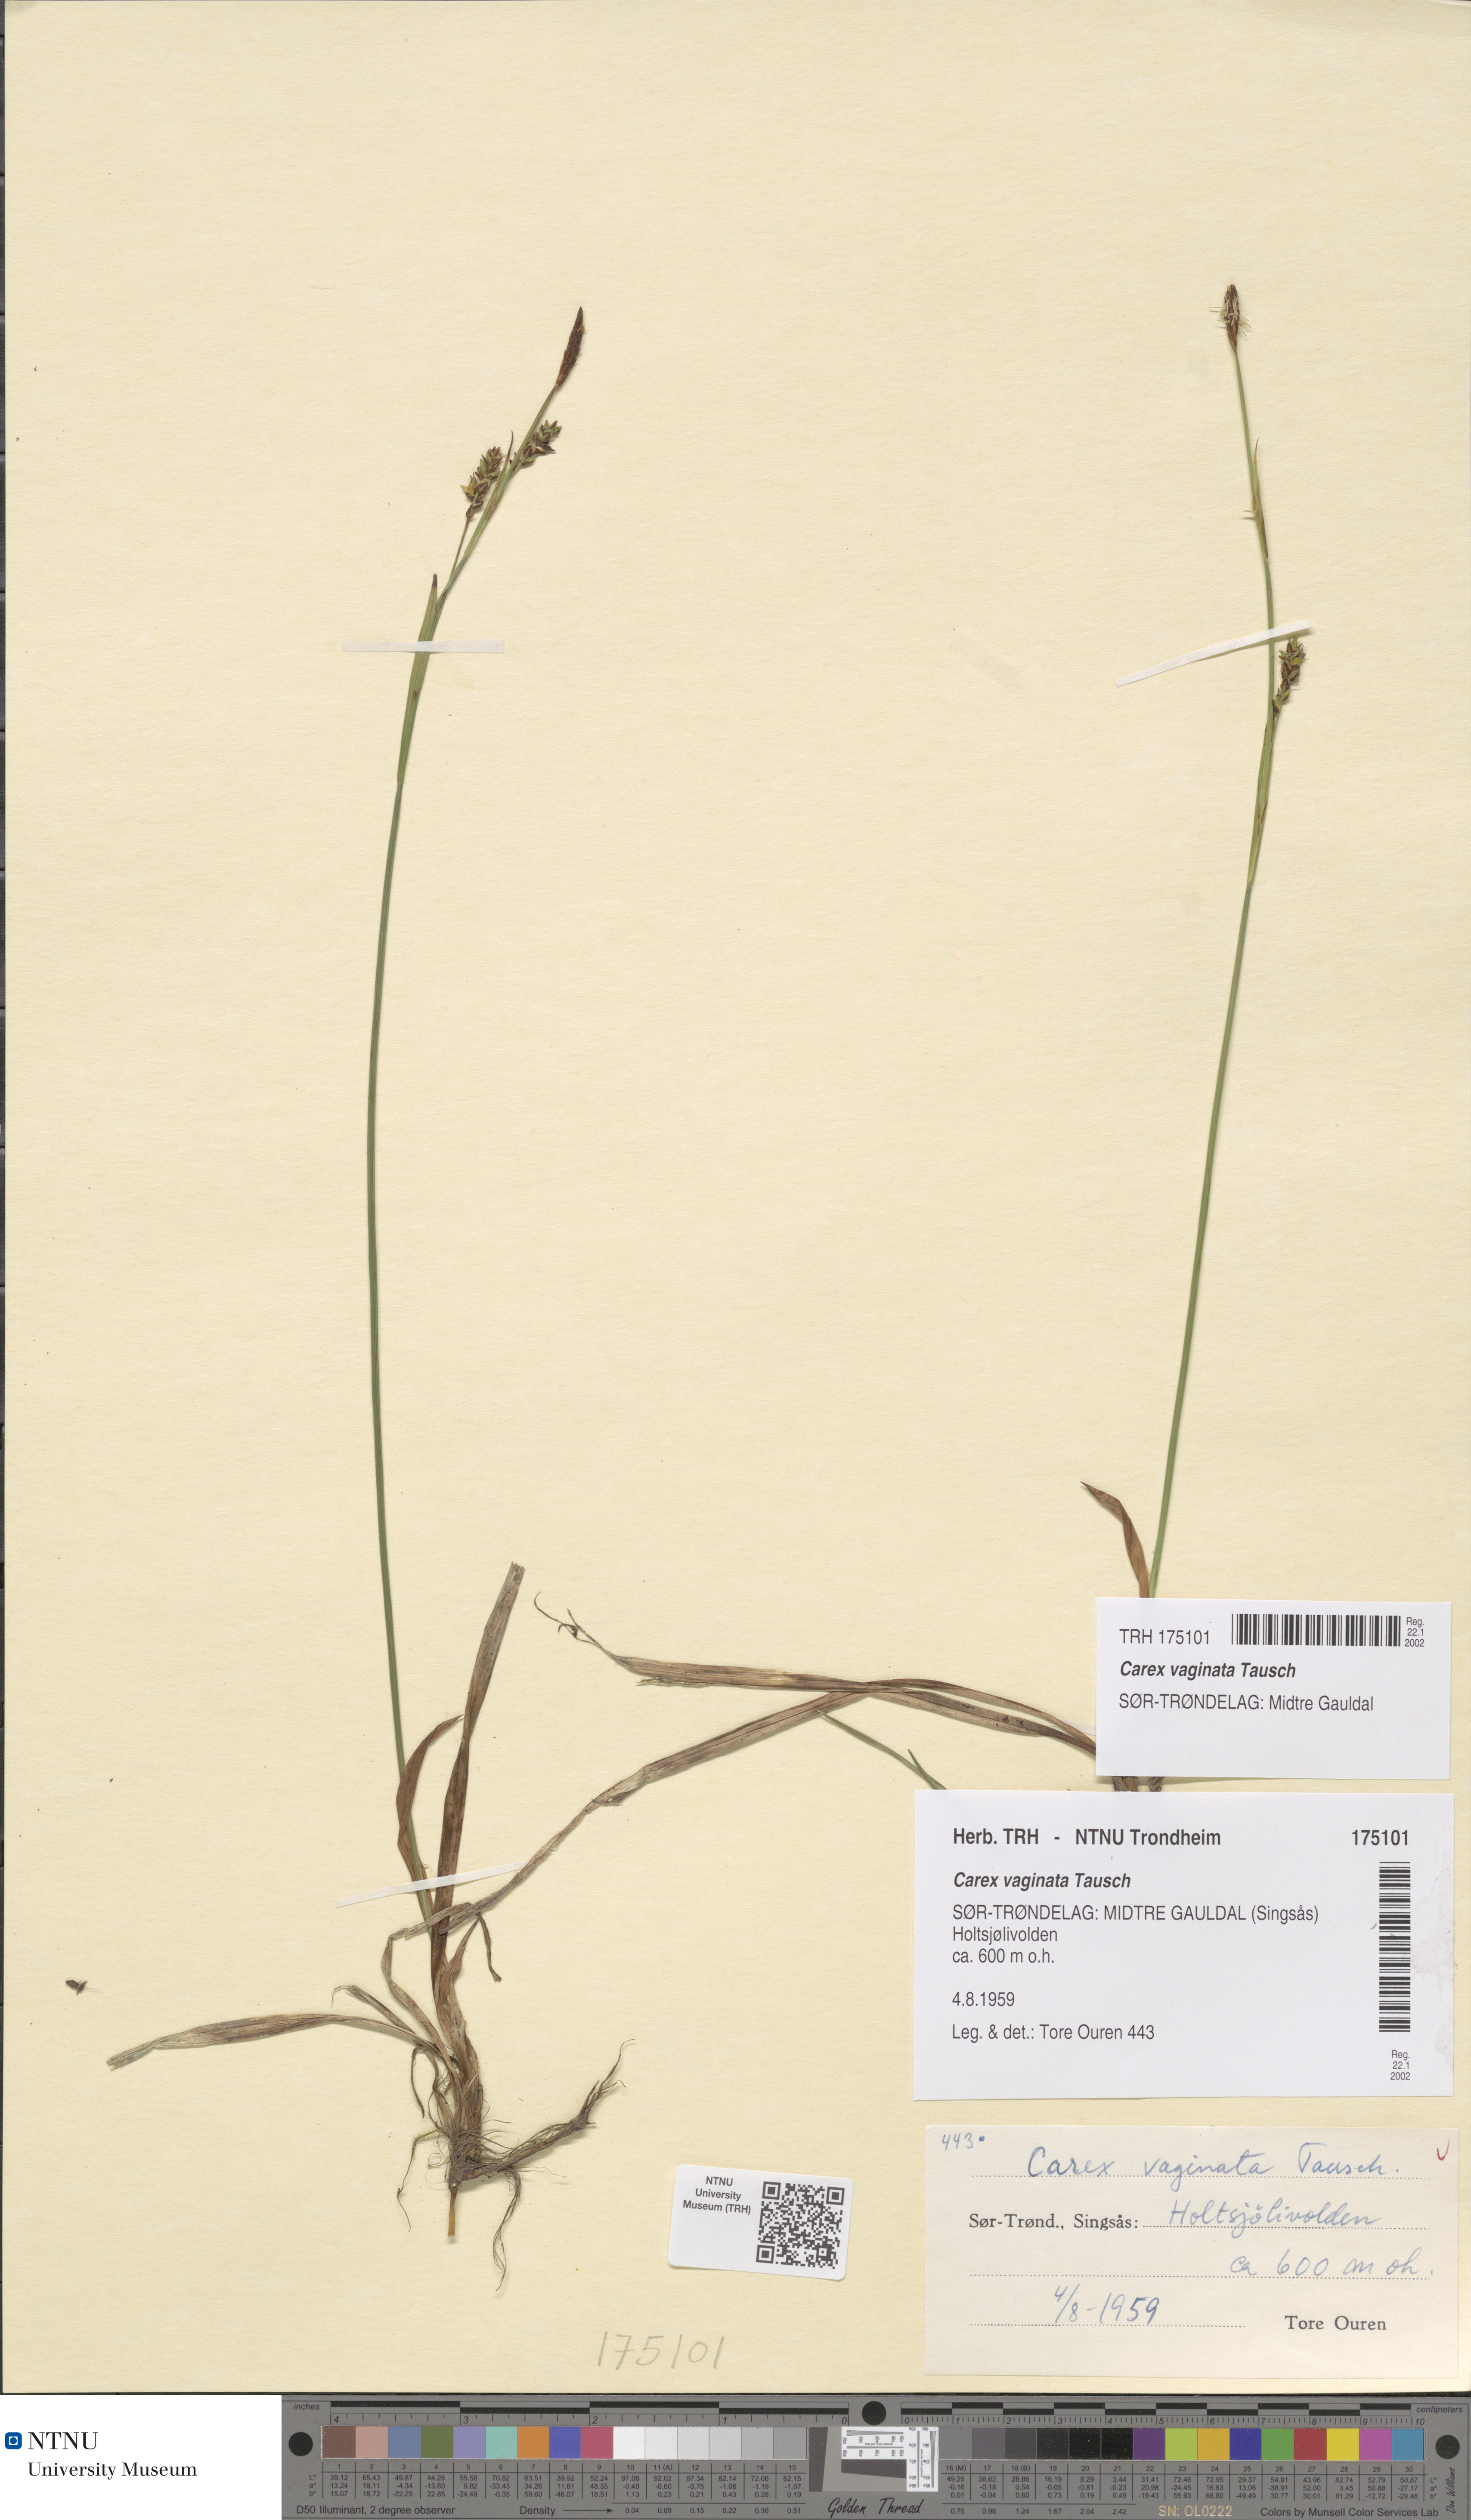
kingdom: Plantae
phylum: Tracheophyta
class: Liliopsida
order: Poales
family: Cyperaceae
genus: Carex
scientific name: Carex vaginata
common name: Sheathed sedge
